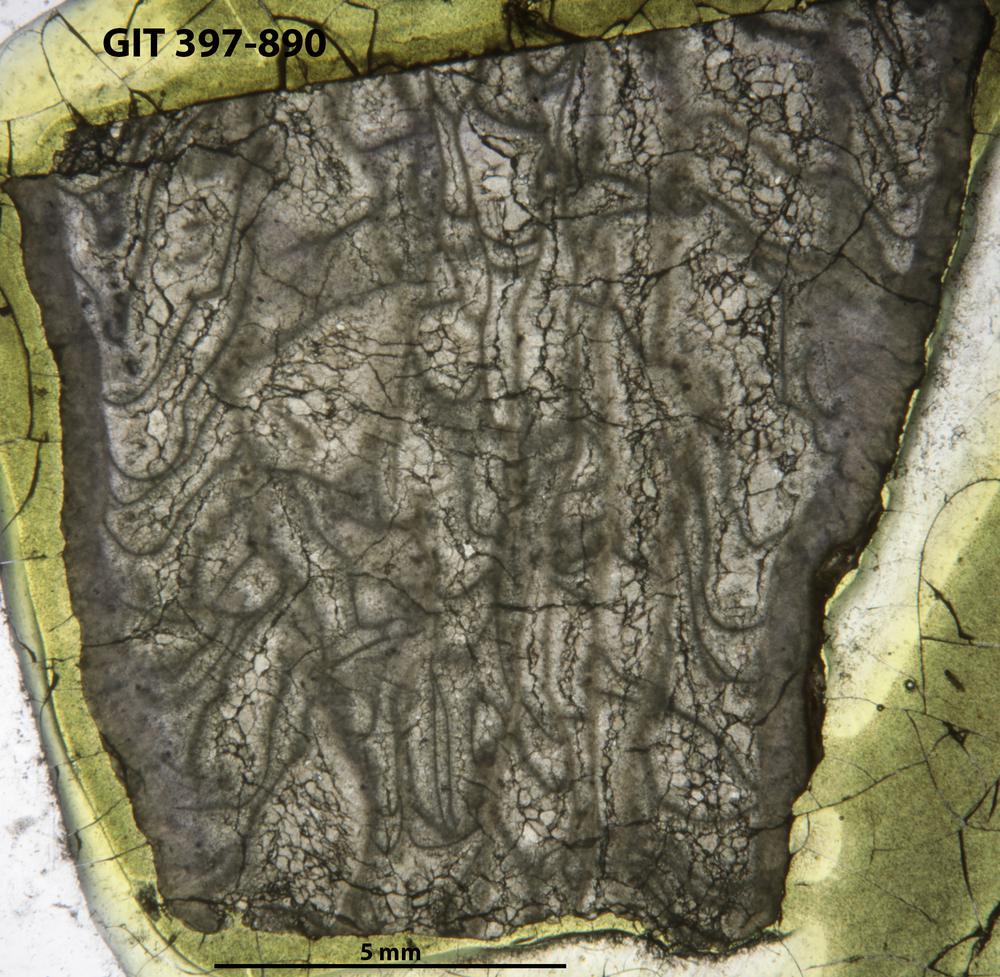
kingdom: Animalia
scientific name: Animalia
